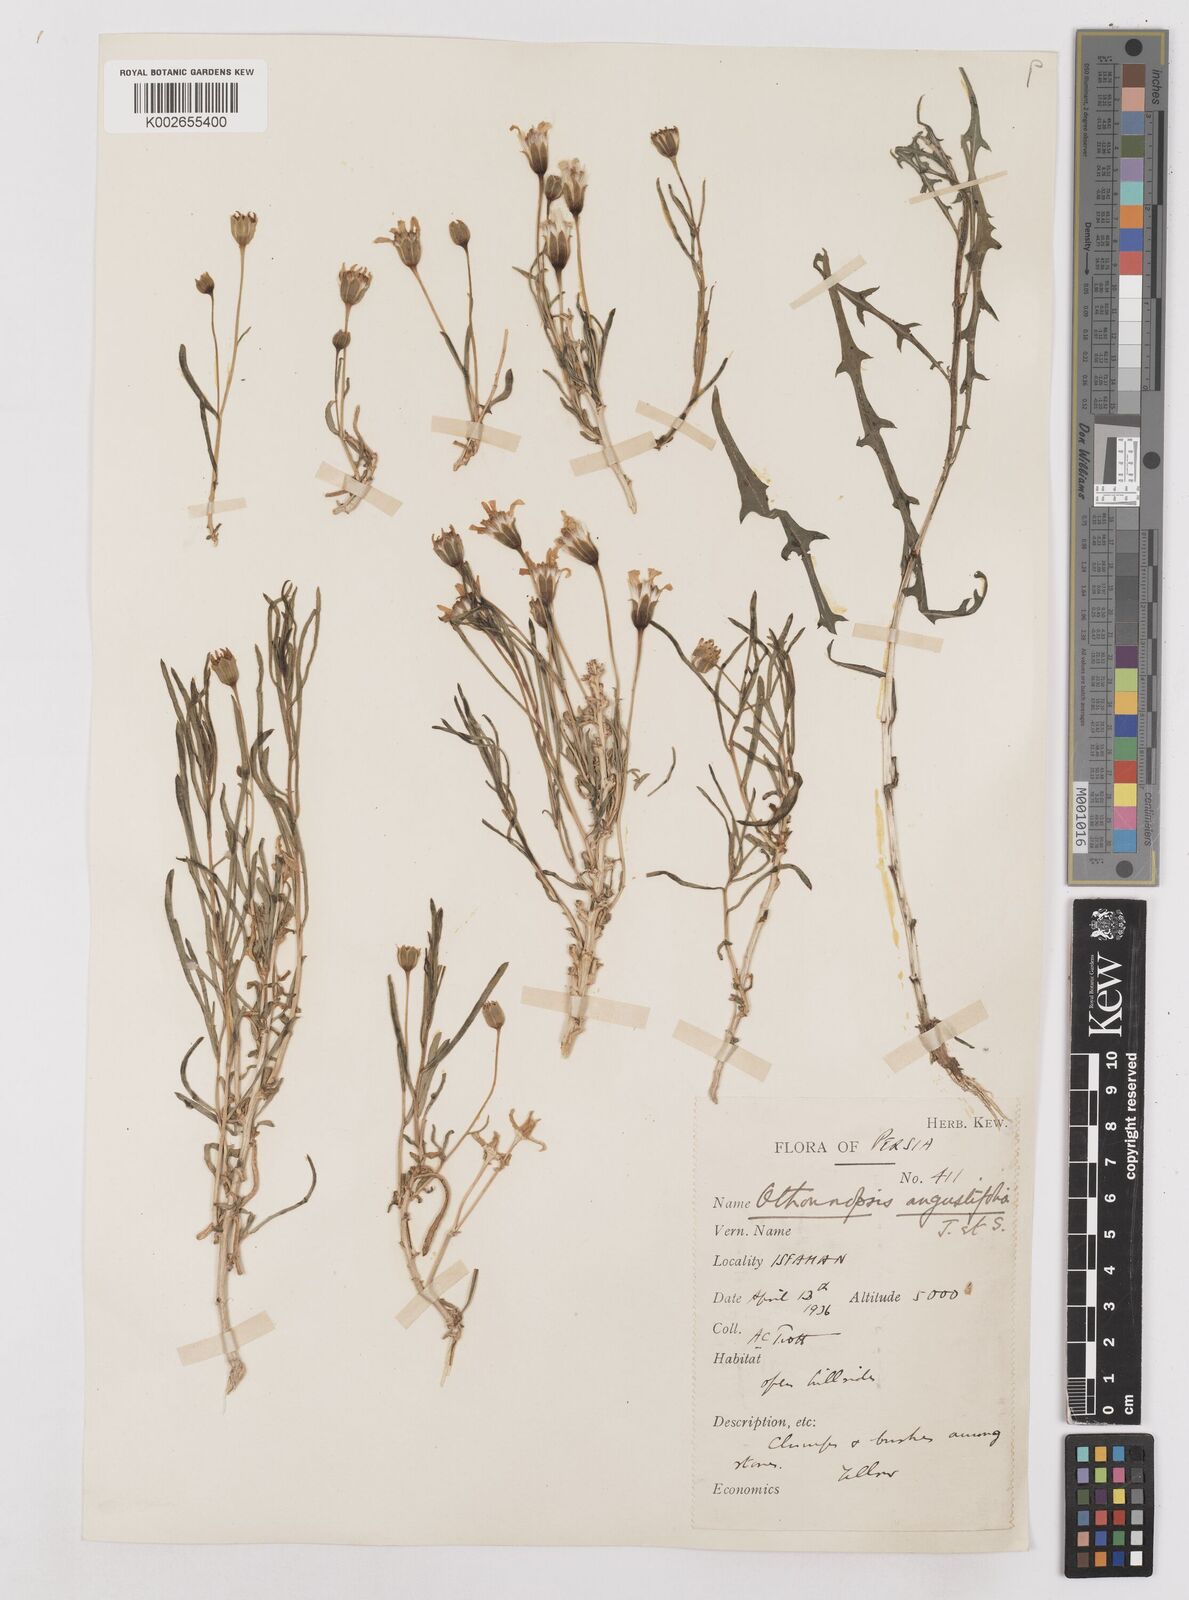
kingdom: Plantae
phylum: Tracheophyta
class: Magnoliopsida
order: Asterales
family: Asteraceae
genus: Hertia
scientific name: Hertia angustifolia
